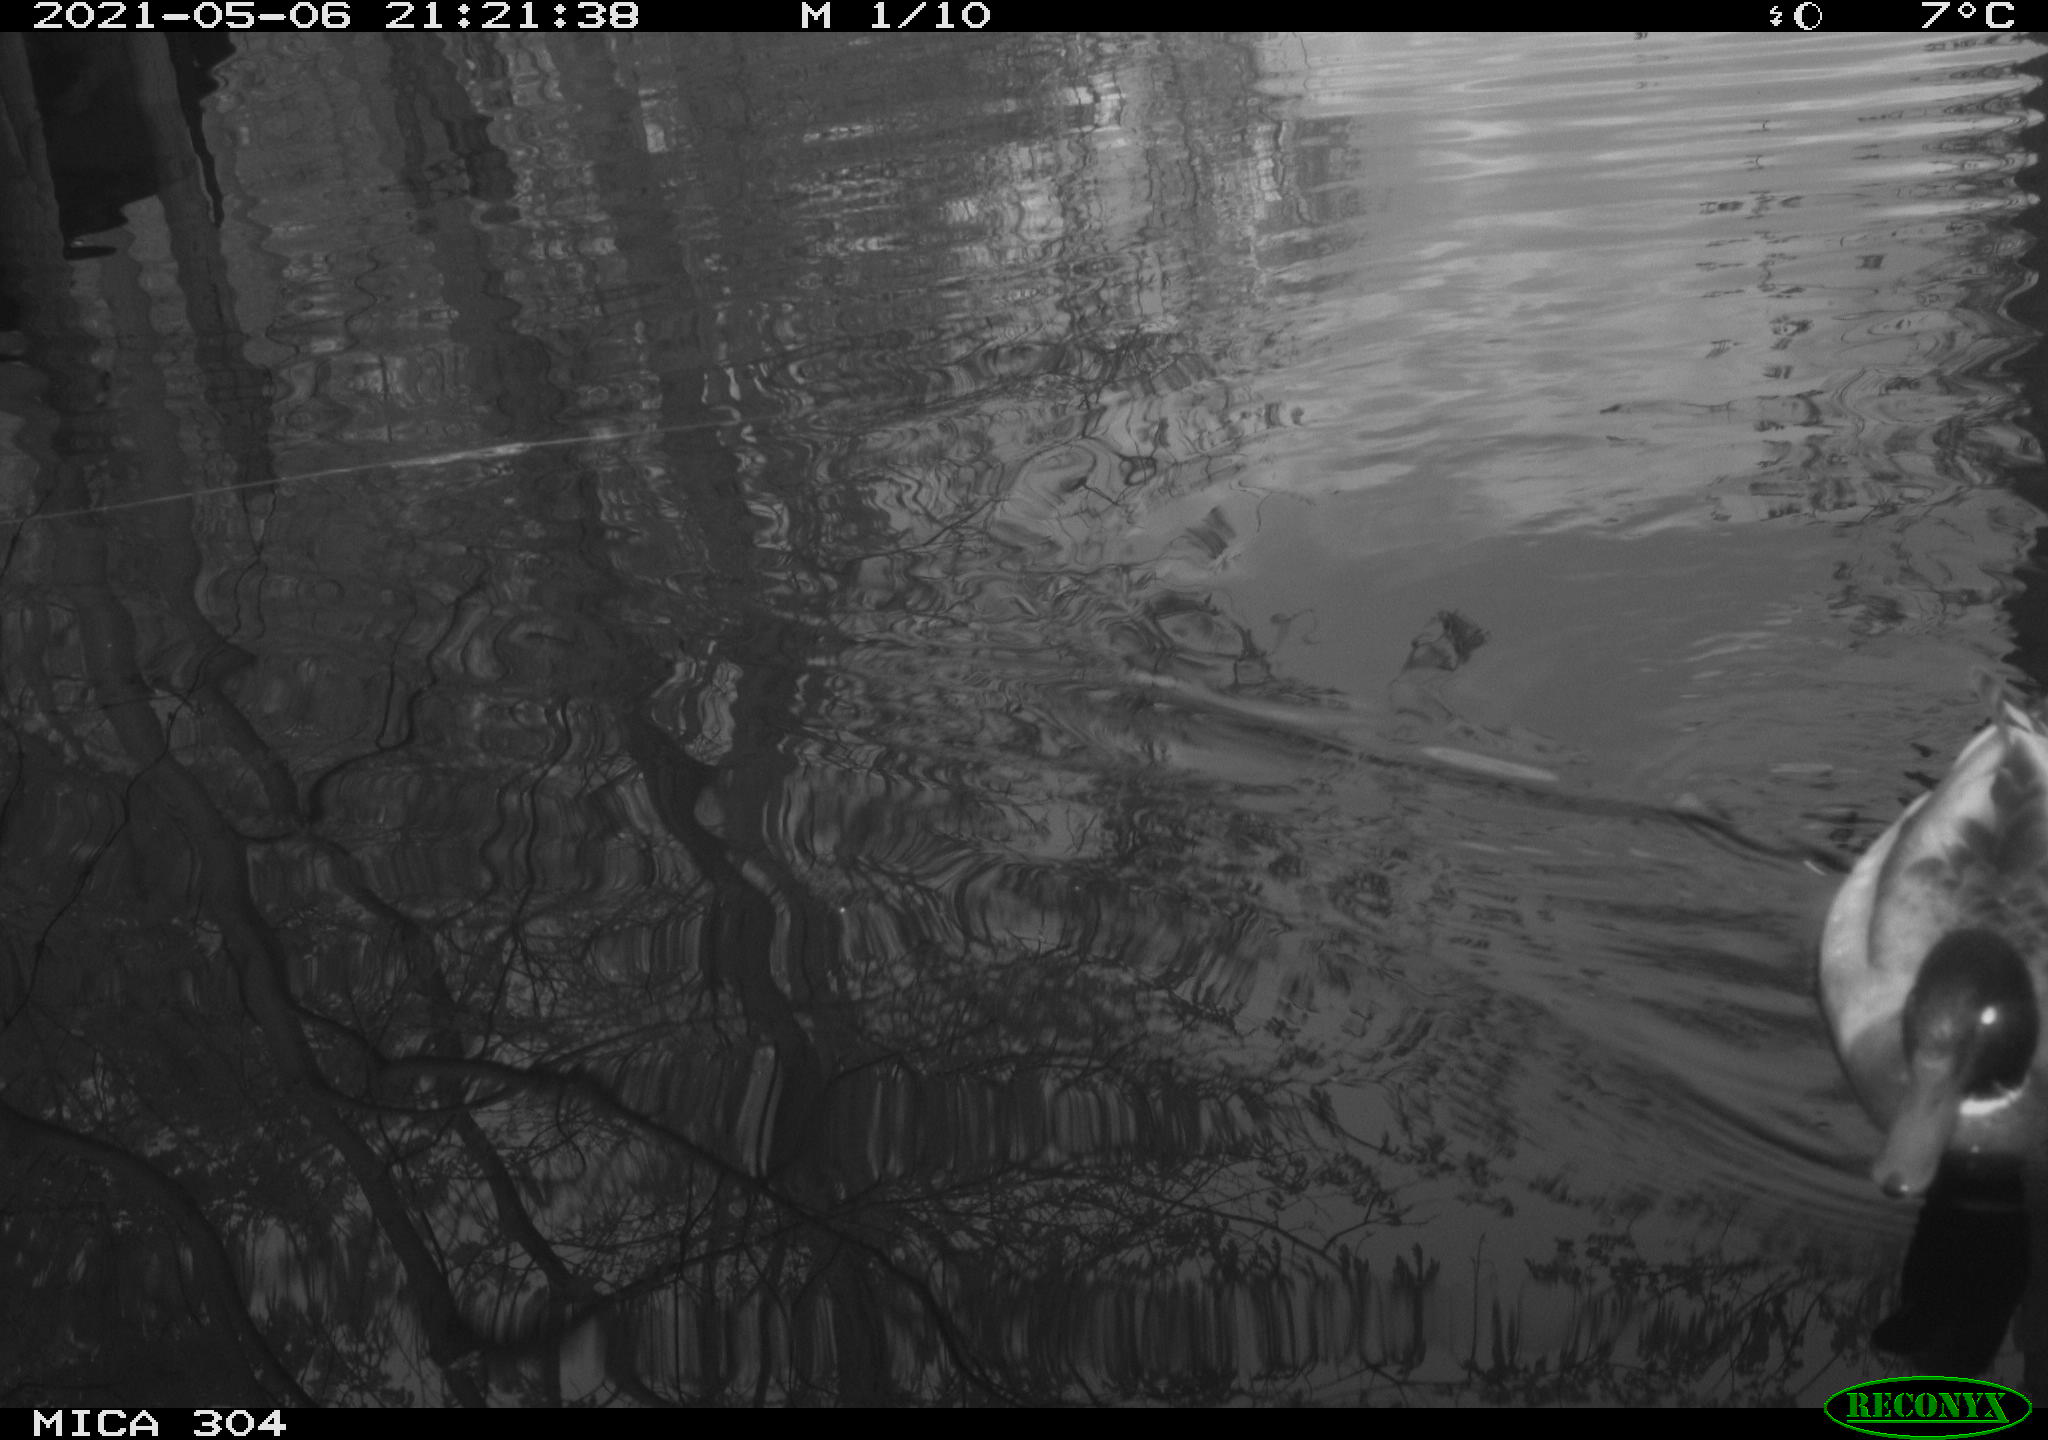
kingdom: Animalia
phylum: Chordata
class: Aves
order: Anseriformes
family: Anatidae
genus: Anas
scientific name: Anas platyrhynchos
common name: Mallard
